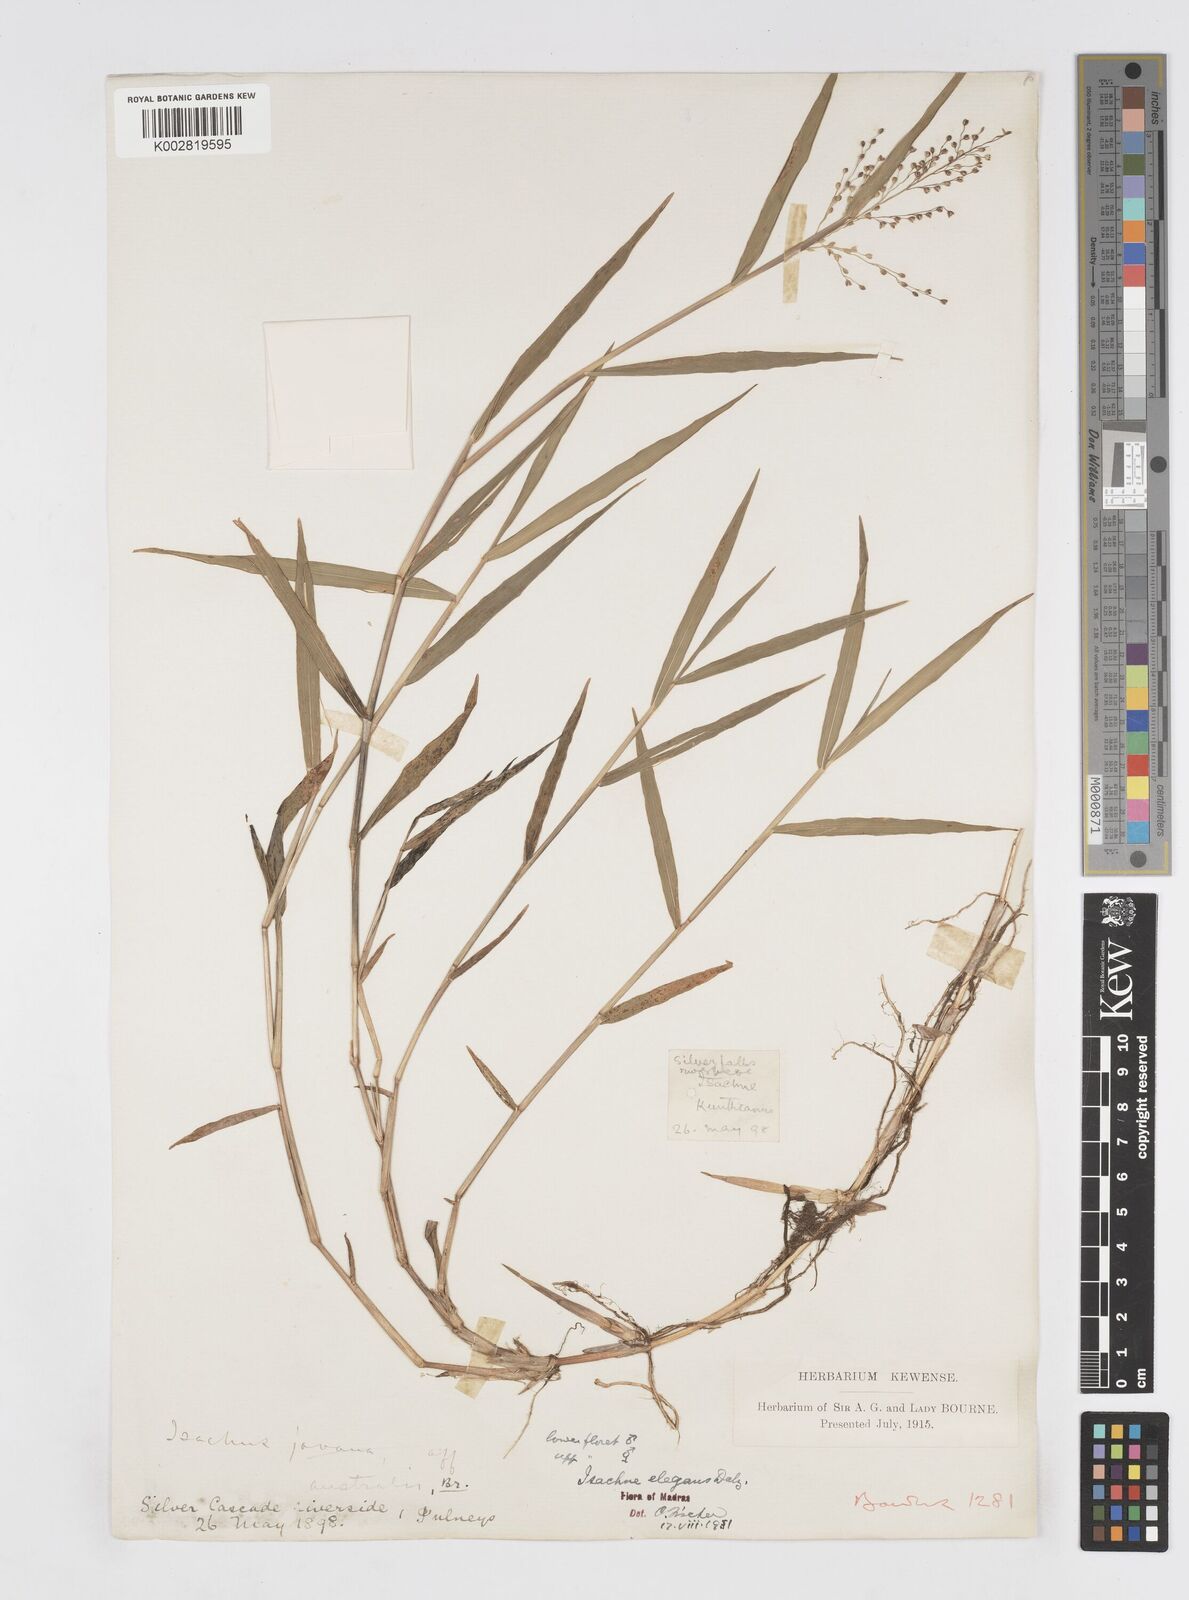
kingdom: Plantae
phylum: Tracheophyta
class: Liliopsida
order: Poales
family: Poaceae
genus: Isachne
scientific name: Isachne elegans
